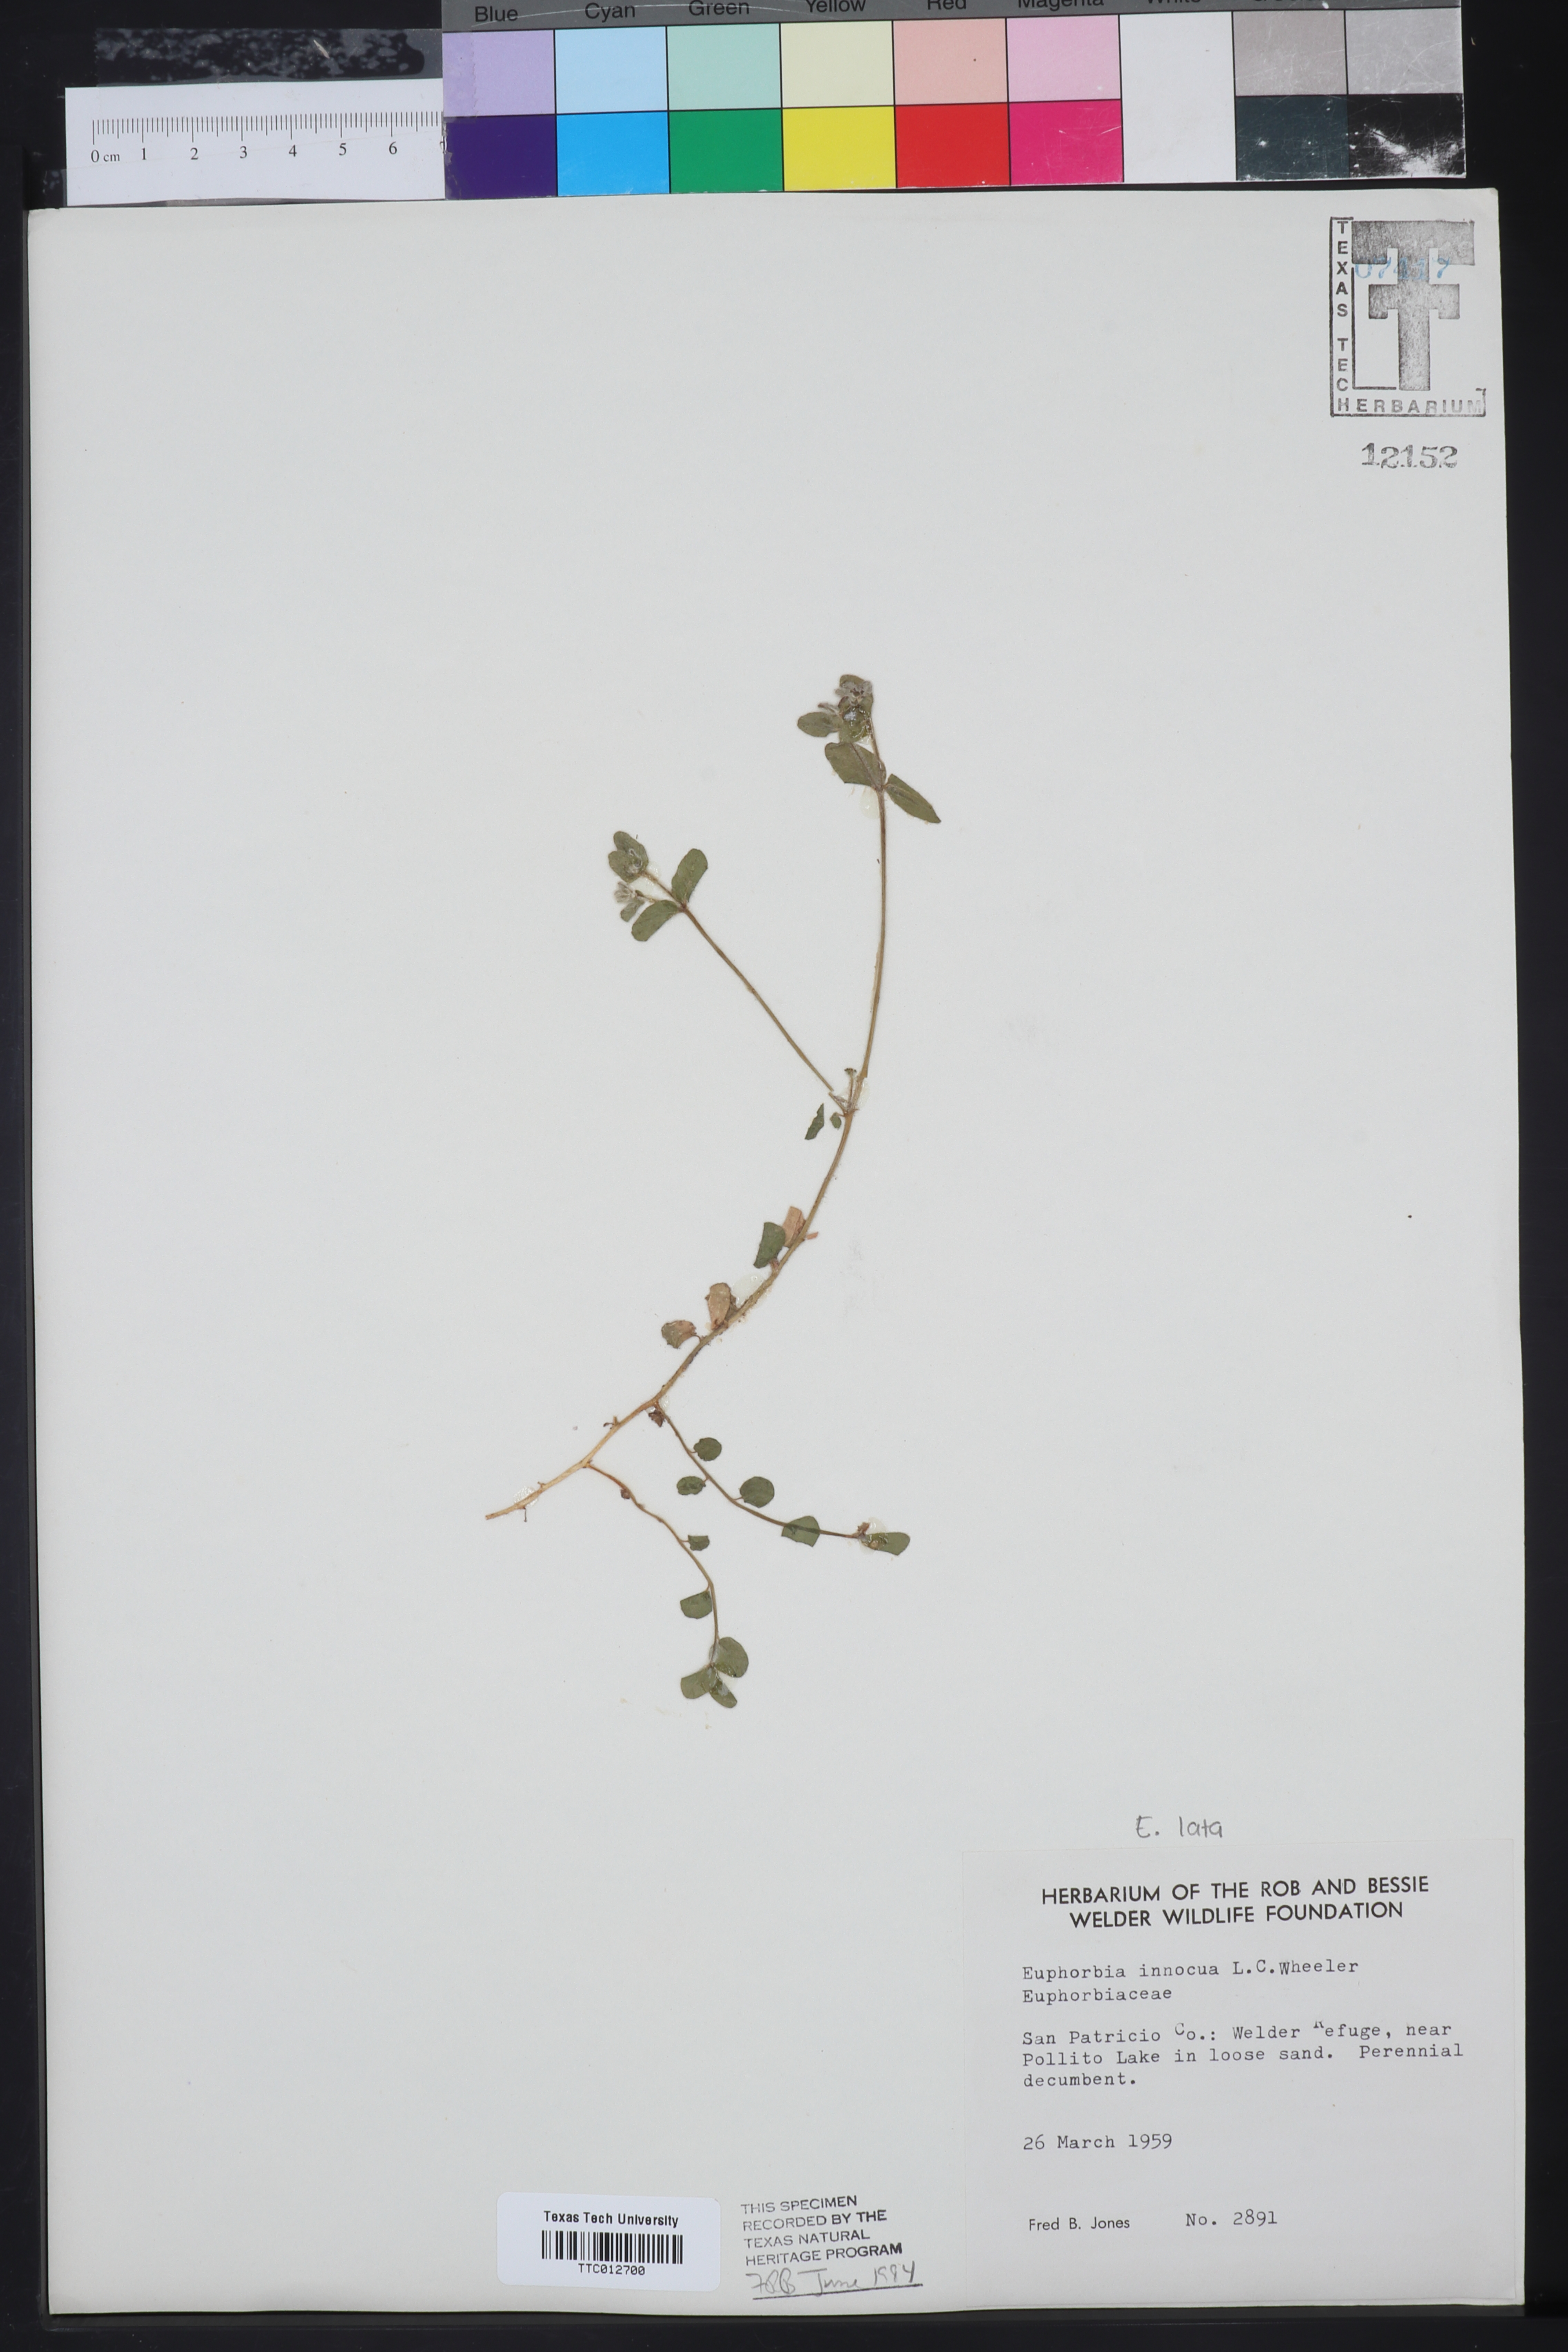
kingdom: Plantae
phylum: Tracheophyta
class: Magnoliopsida
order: Malpighiales
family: Euphorbiaceae
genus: Euphorbia
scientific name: Euphorbia innocua
